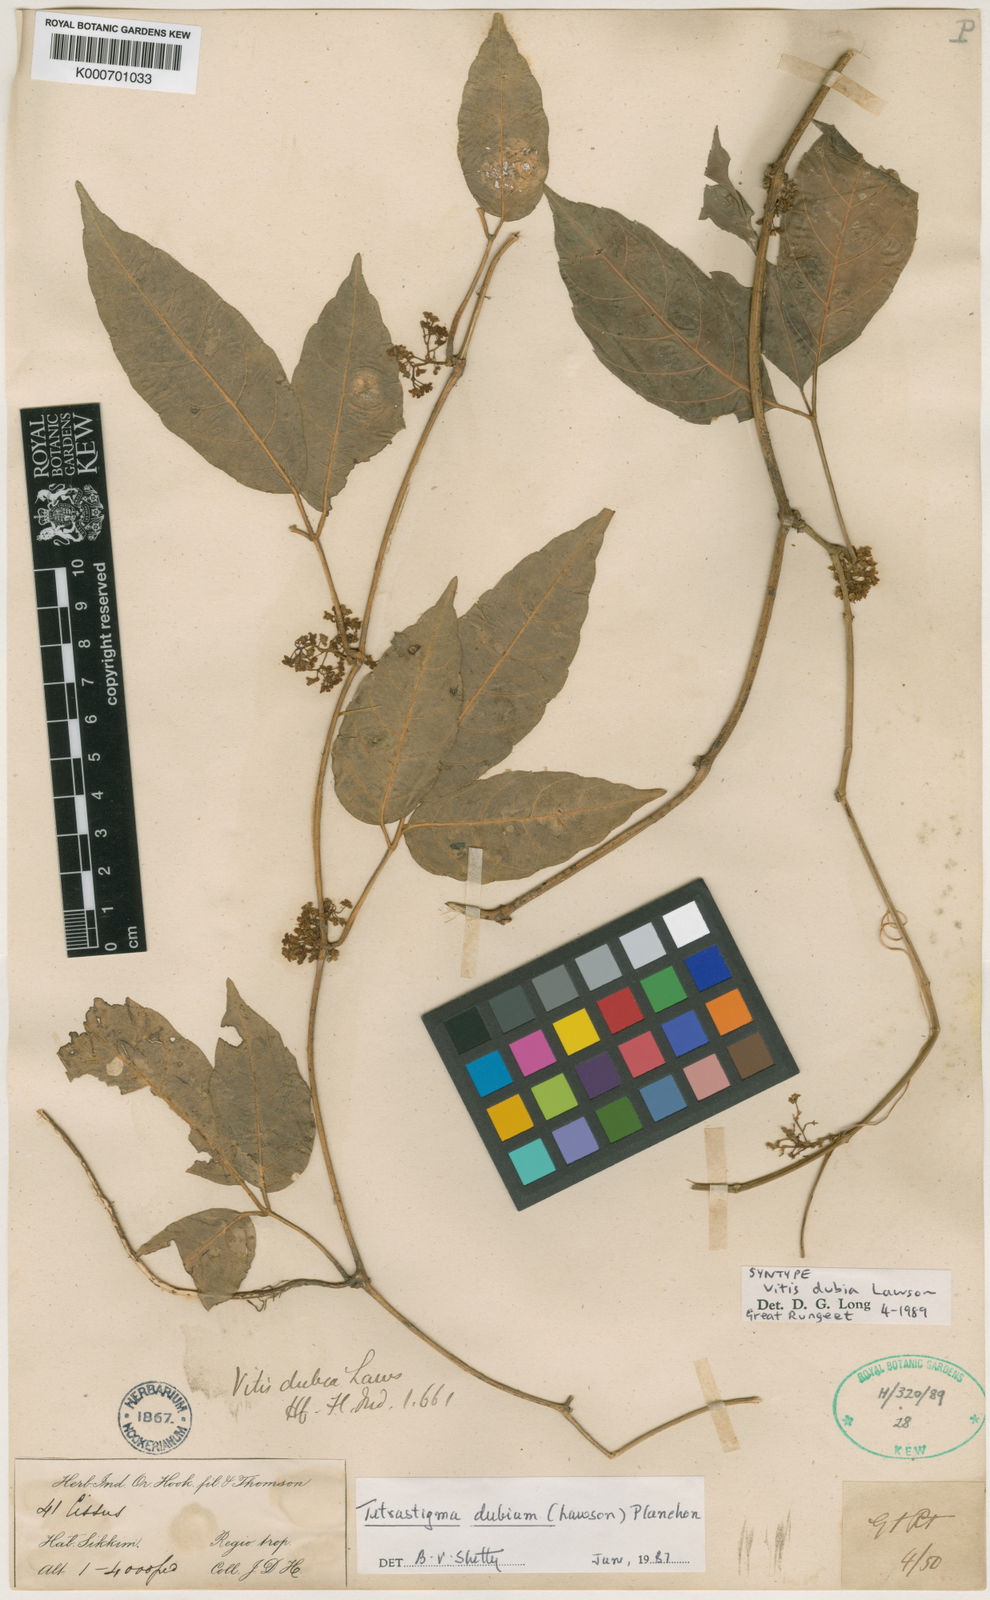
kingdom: Plantae
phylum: Tracheophyta
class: Magnoliopsida
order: Vitales
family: Vitaceae
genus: Tetrastigma
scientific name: Tetrastigma dubium
